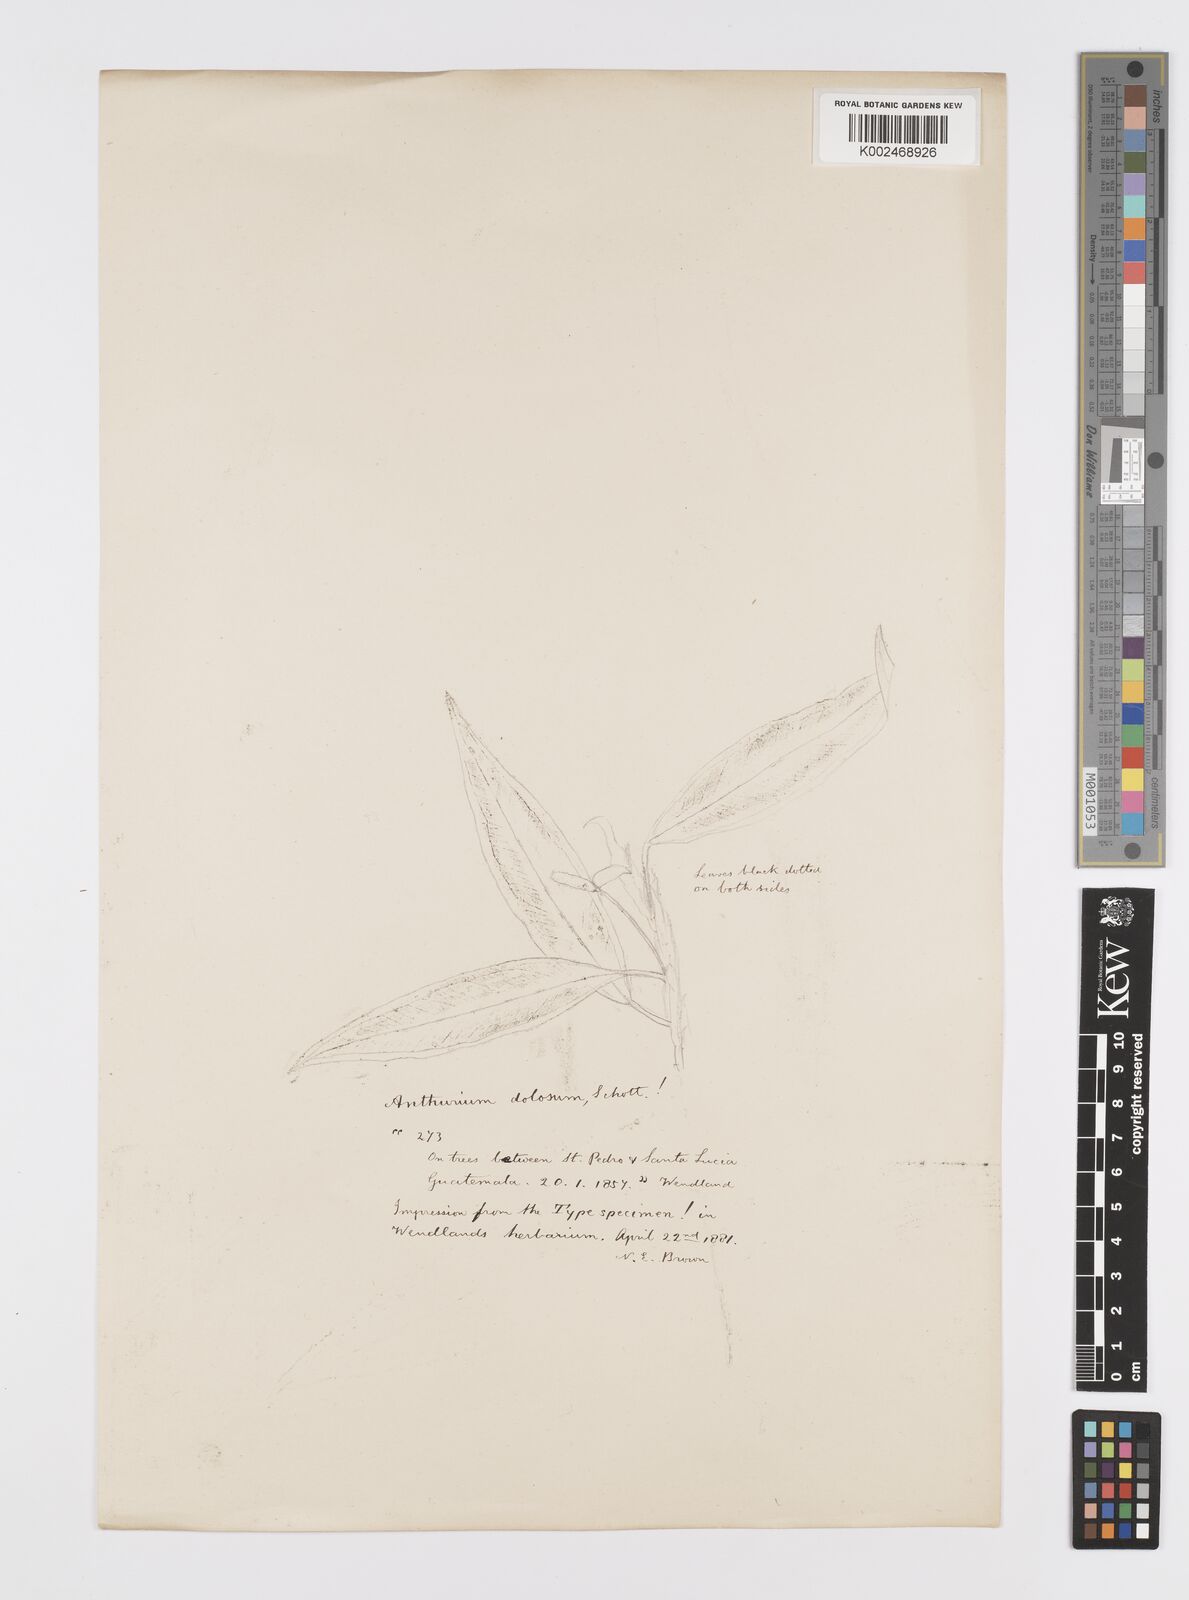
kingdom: Plantae
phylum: Tracheophyta
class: Liliopsida
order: Alismatales
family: Araceae
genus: Anthurium
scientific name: Anthurium scandens
